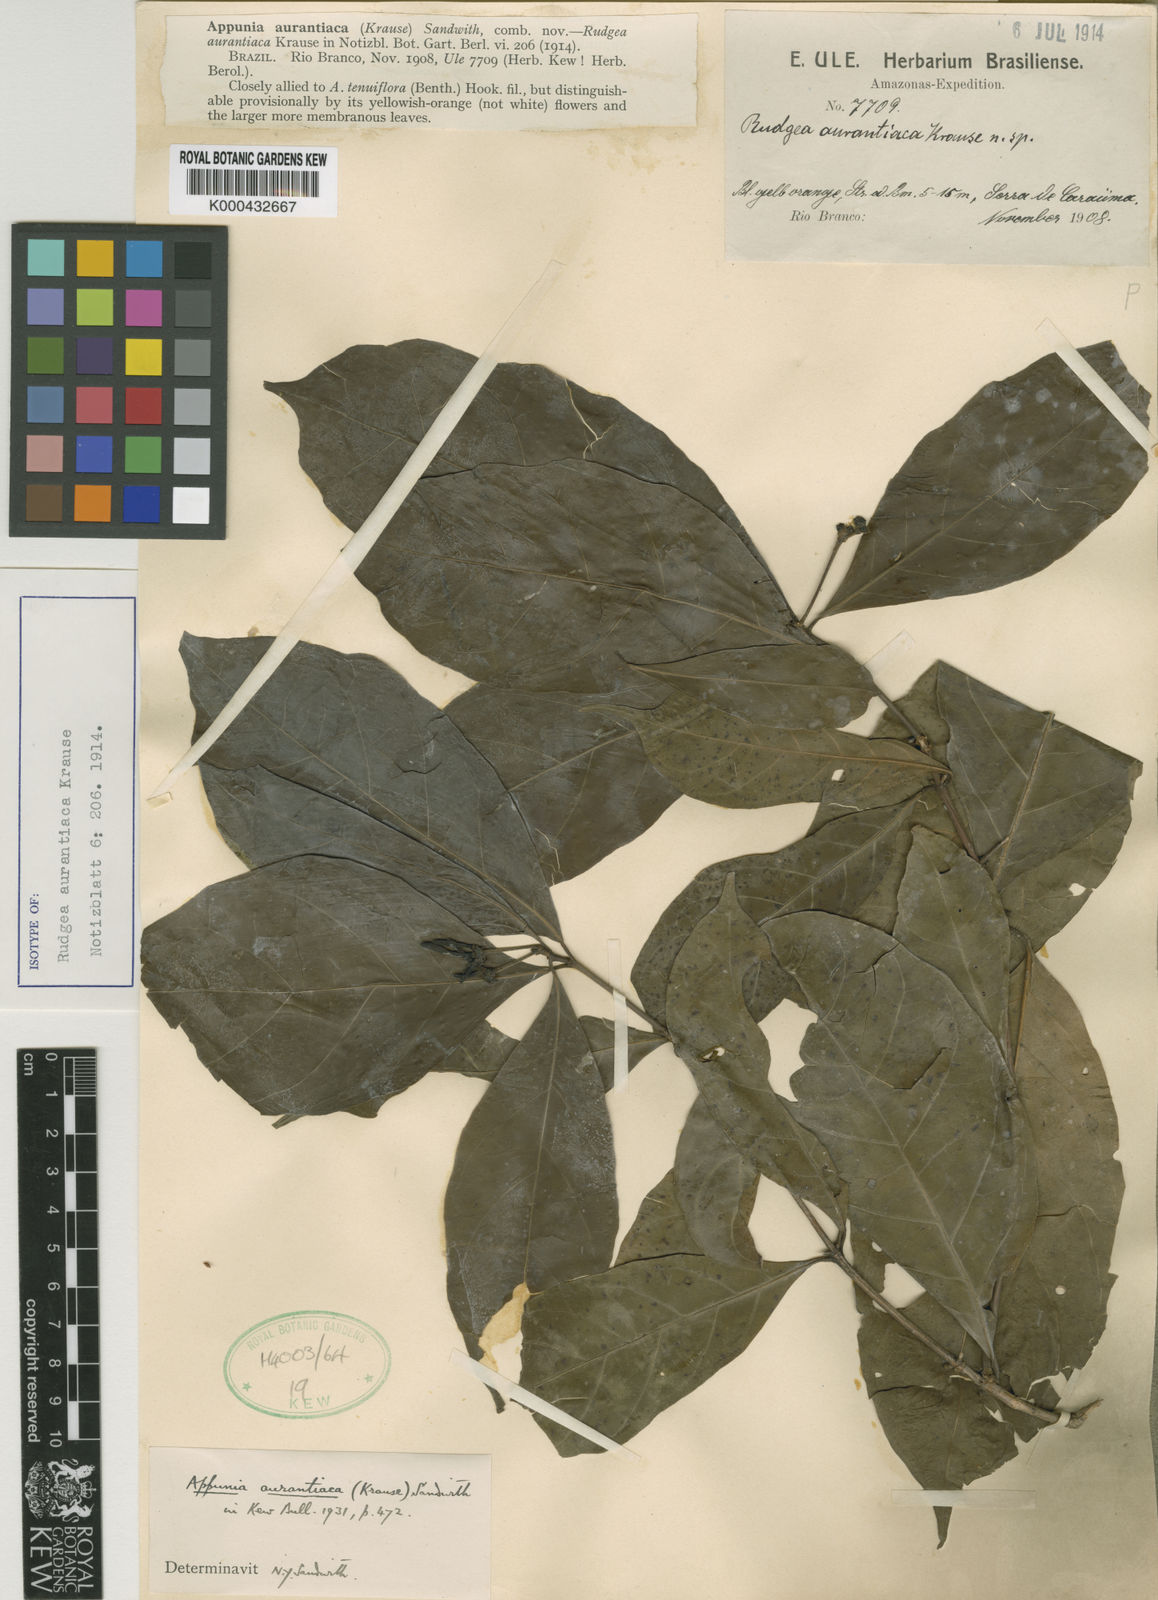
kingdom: Plantae
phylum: Tracheophyta
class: Magnoliopsida
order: Gentianales
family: Rubiaceae
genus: Appunia
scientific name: Appunia aurantiaca
